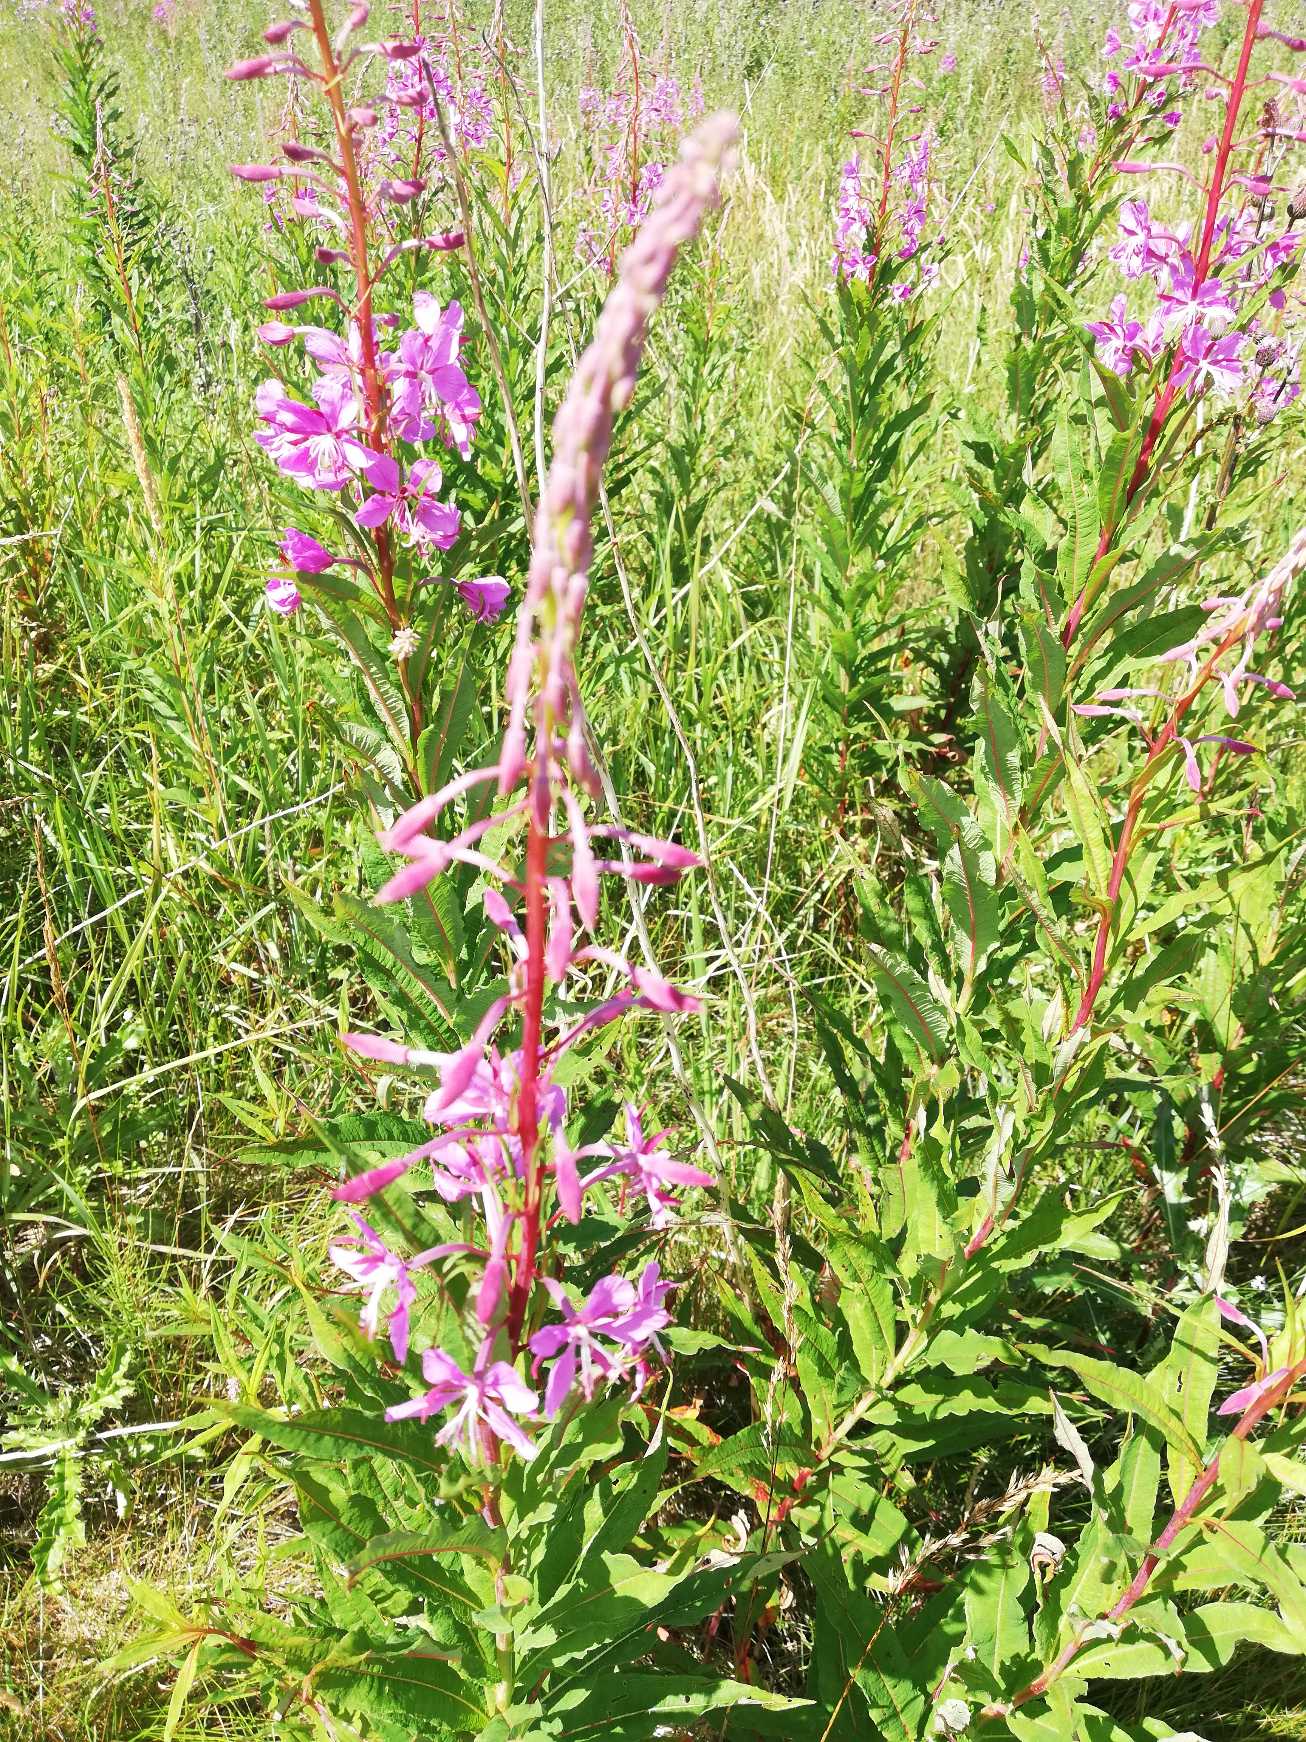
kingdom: Plantae
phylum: Tracheophyta
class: Magnoliopsida
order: Myrtales
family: Onagraceae
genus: Chamaenerion
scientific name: Chamaenerion angustifolium
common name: Gederams
